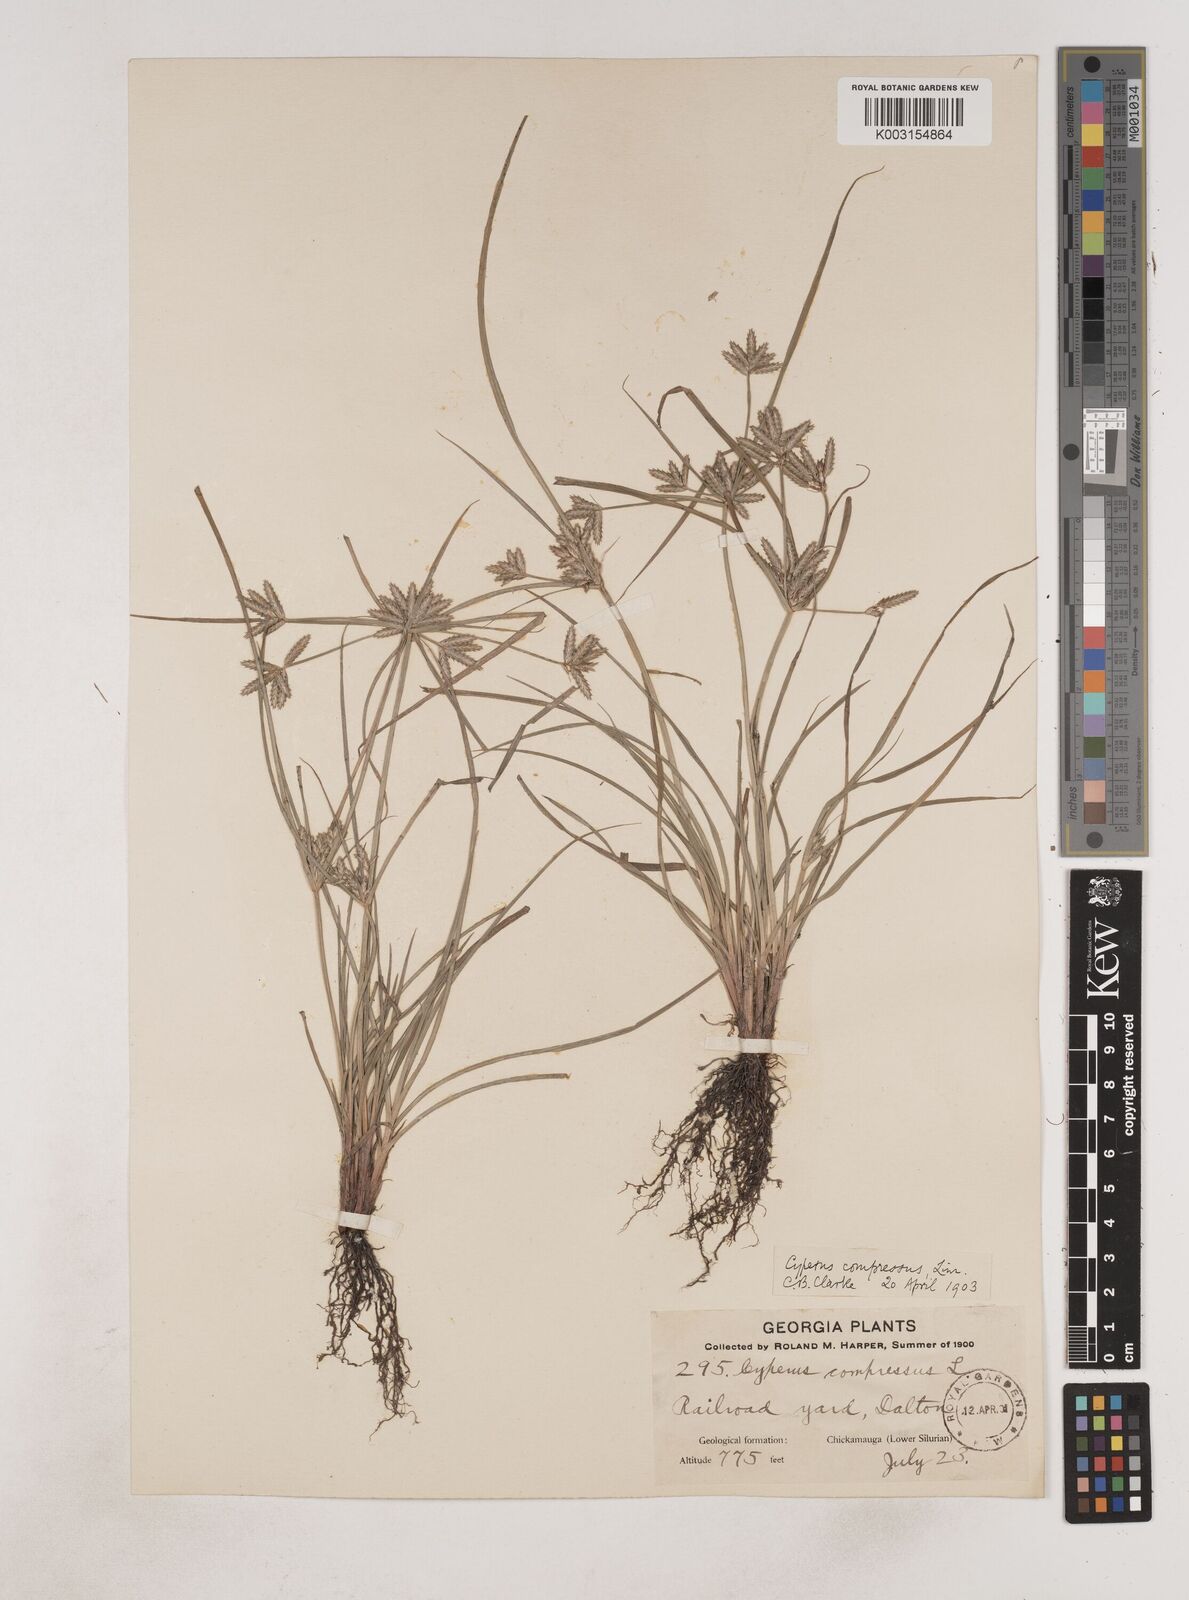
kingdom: Plantae
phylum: Tracheophyta
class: Liliopsida
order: Poales
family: Cyperaceae
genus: Cyperus
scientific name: Cyperus compressus
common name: Poorland flatsedge
